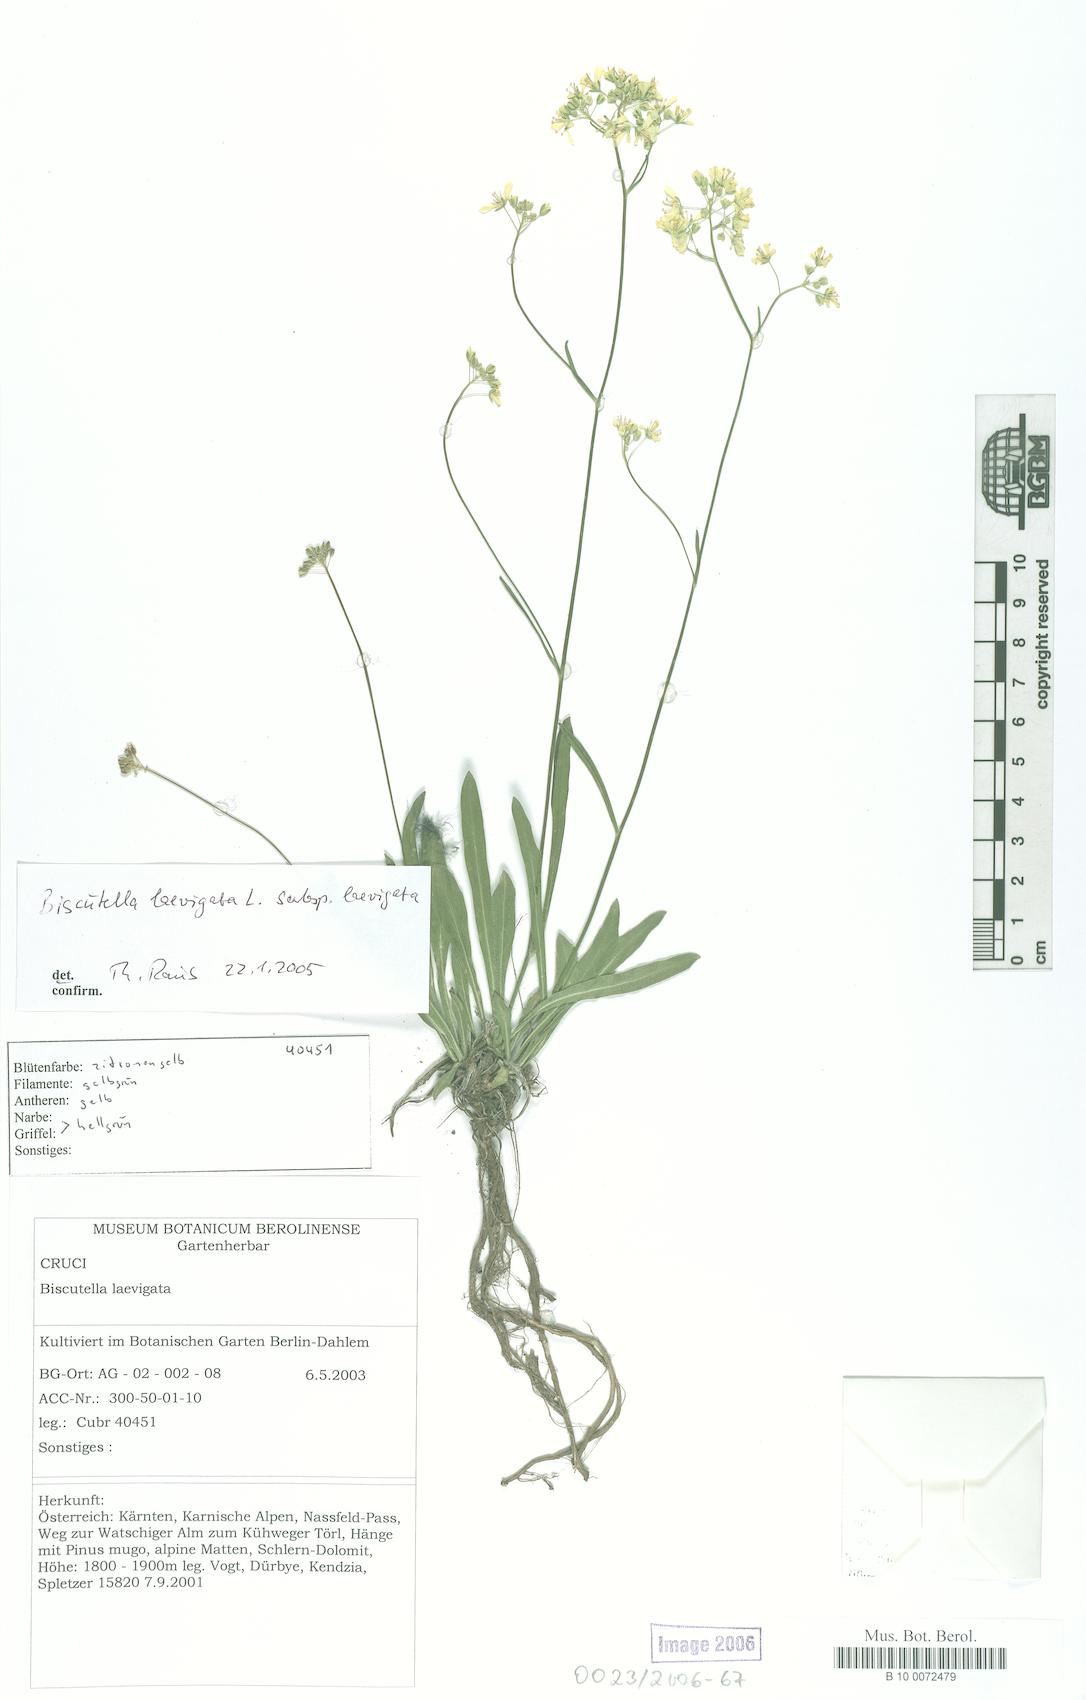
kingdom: Plantae
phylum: Tracheophyta
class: Magnoliopsida
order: Brassicales
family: Brassicaceae
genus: Biscutella
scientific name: Biscutella laevigata
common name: Buckler mustard
